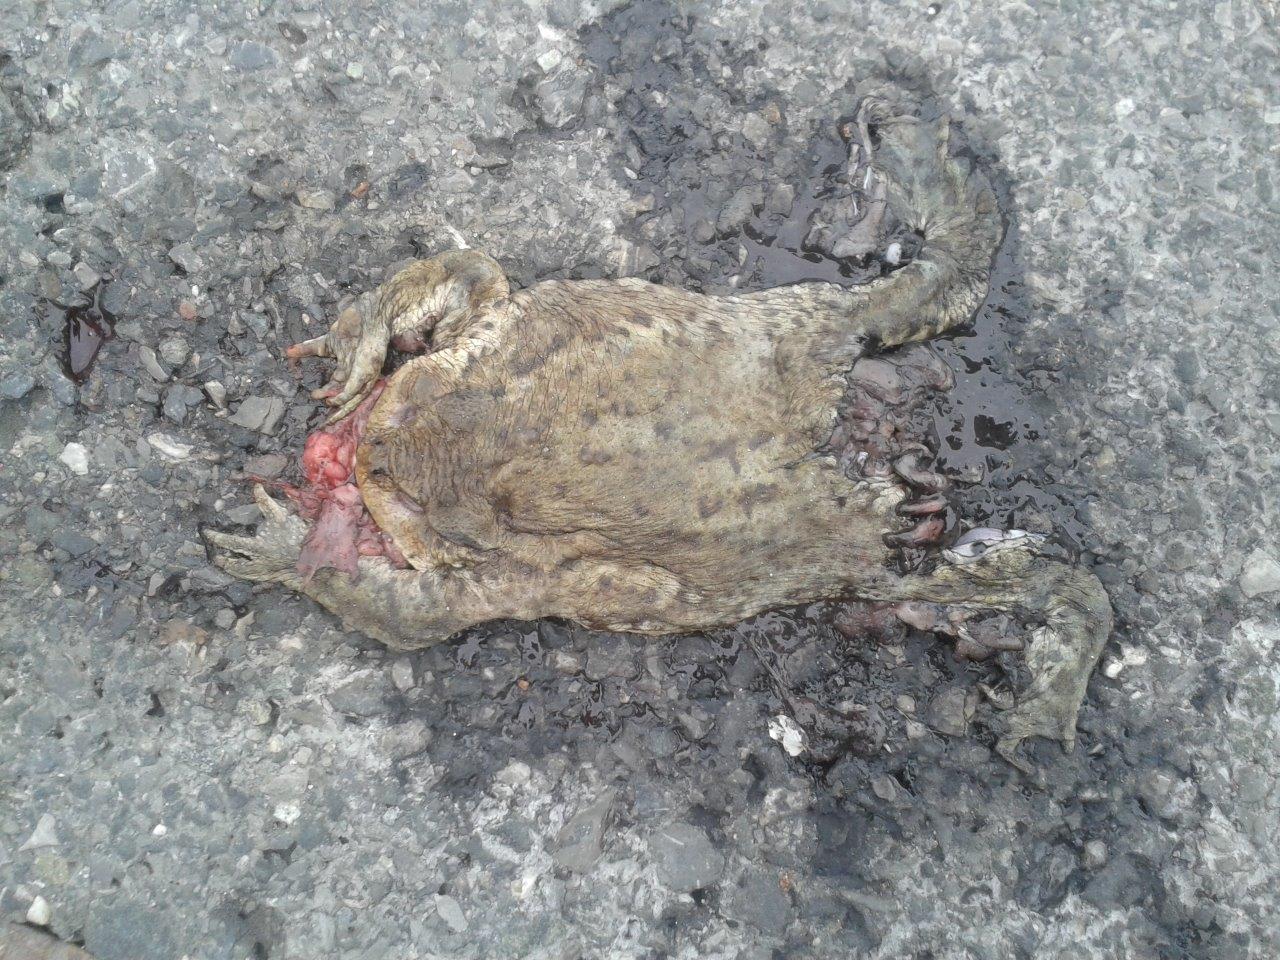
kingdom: Animalia
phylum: Chordata
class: Amphibia
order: Anura
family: Bufonidae
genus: Bufo
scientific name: Bufo bufo
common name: Common toad
